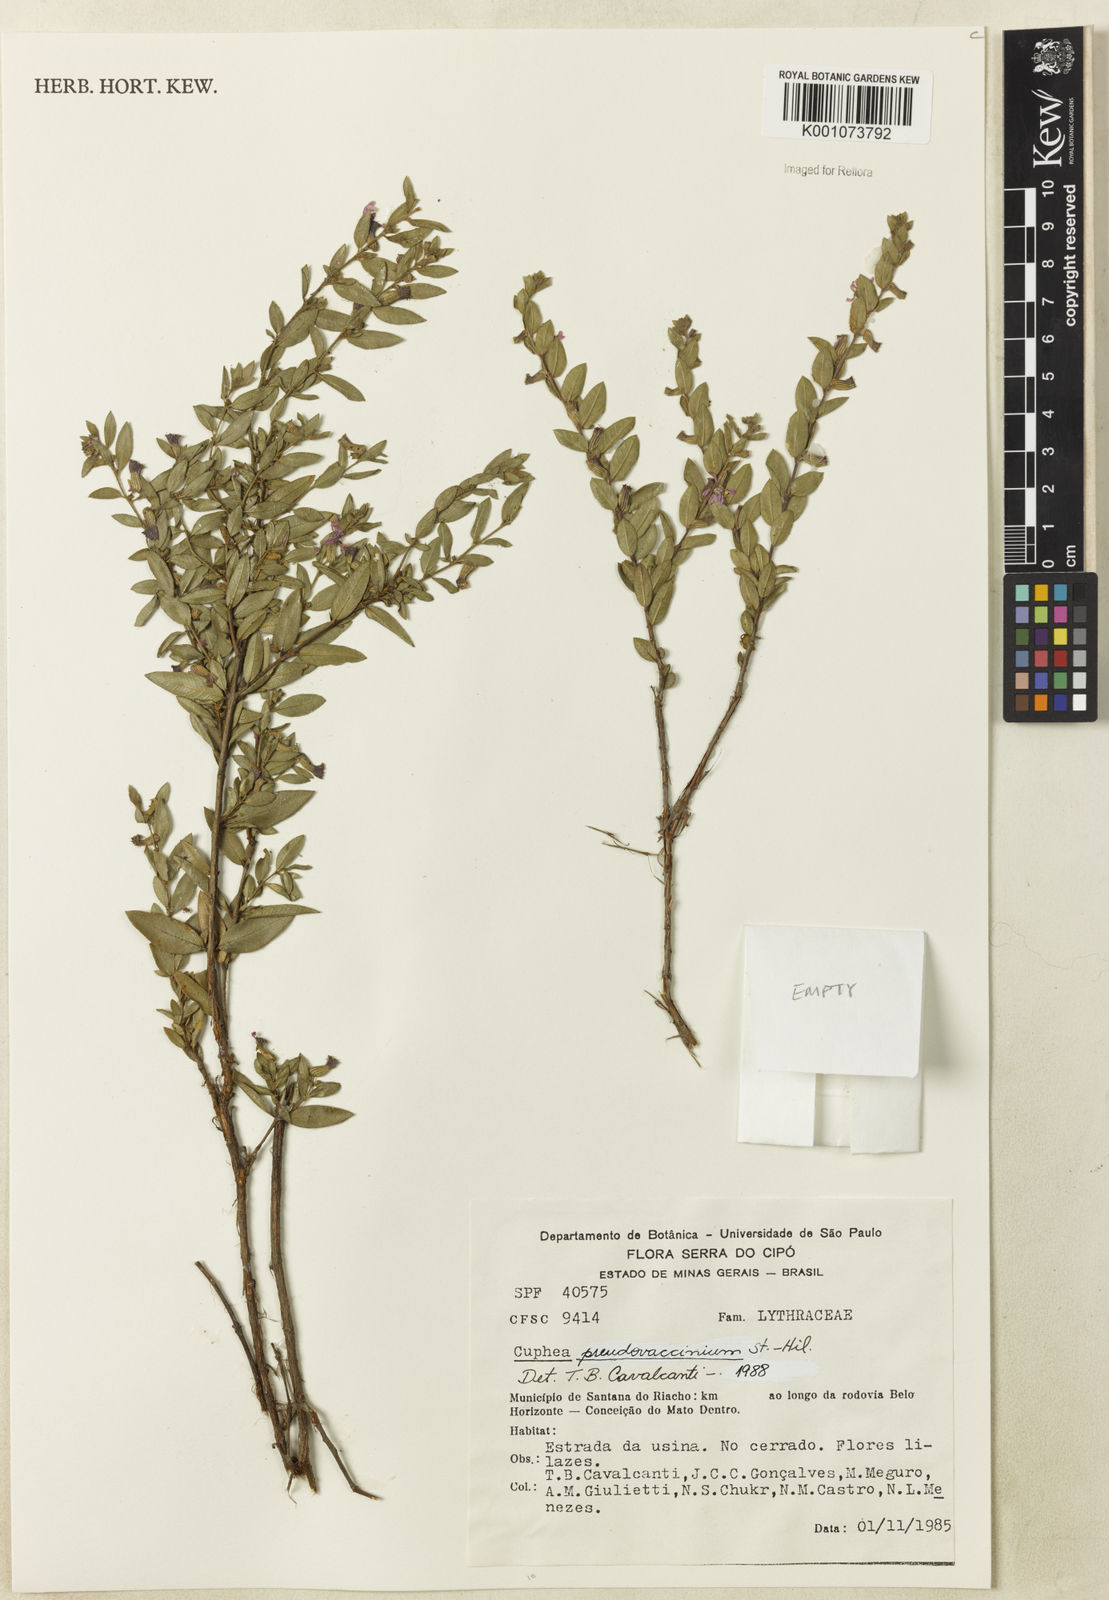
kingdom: Plantae
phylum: Tracheophyta
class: Magnoliopsida
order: Myrtales
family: Lythraceae
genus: Cuphea
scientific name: Cuphea pseudovaccinium
